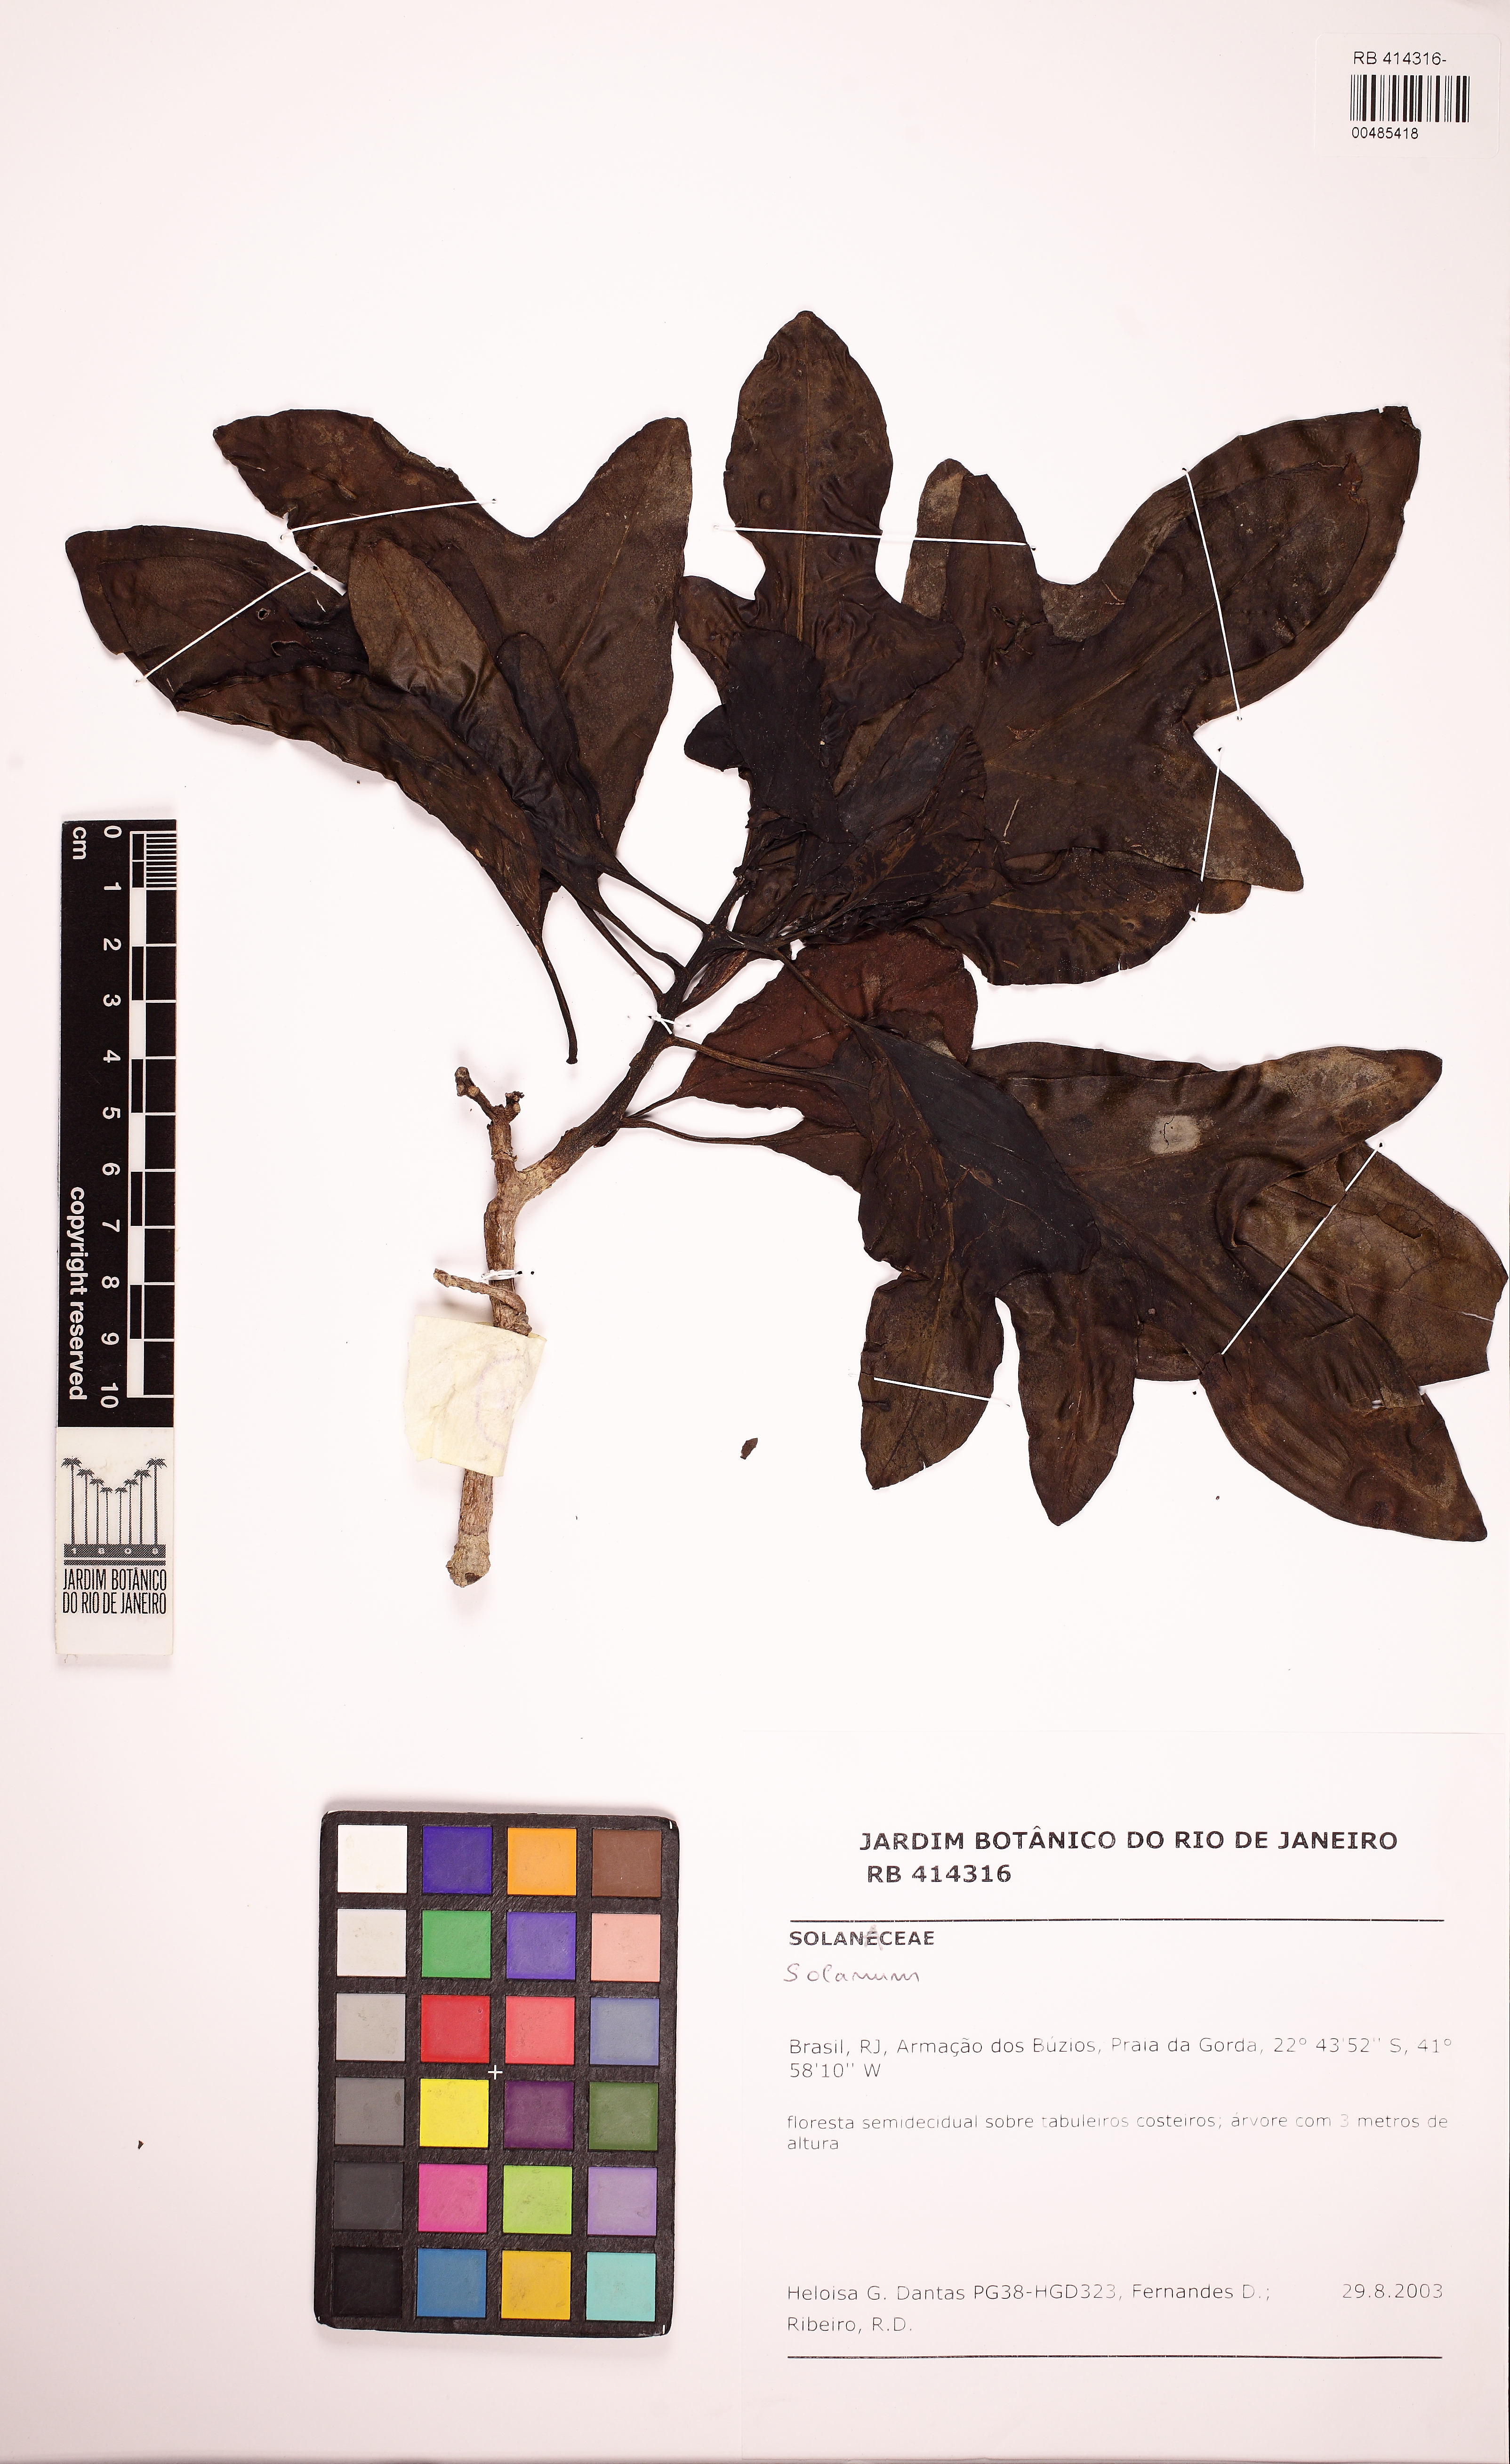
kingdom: Plantae
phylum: Tracheophyta
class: Magnoliopsida
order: Solanales
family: Solanaceae
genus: Solanum
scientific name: Solanum sycocarpum
